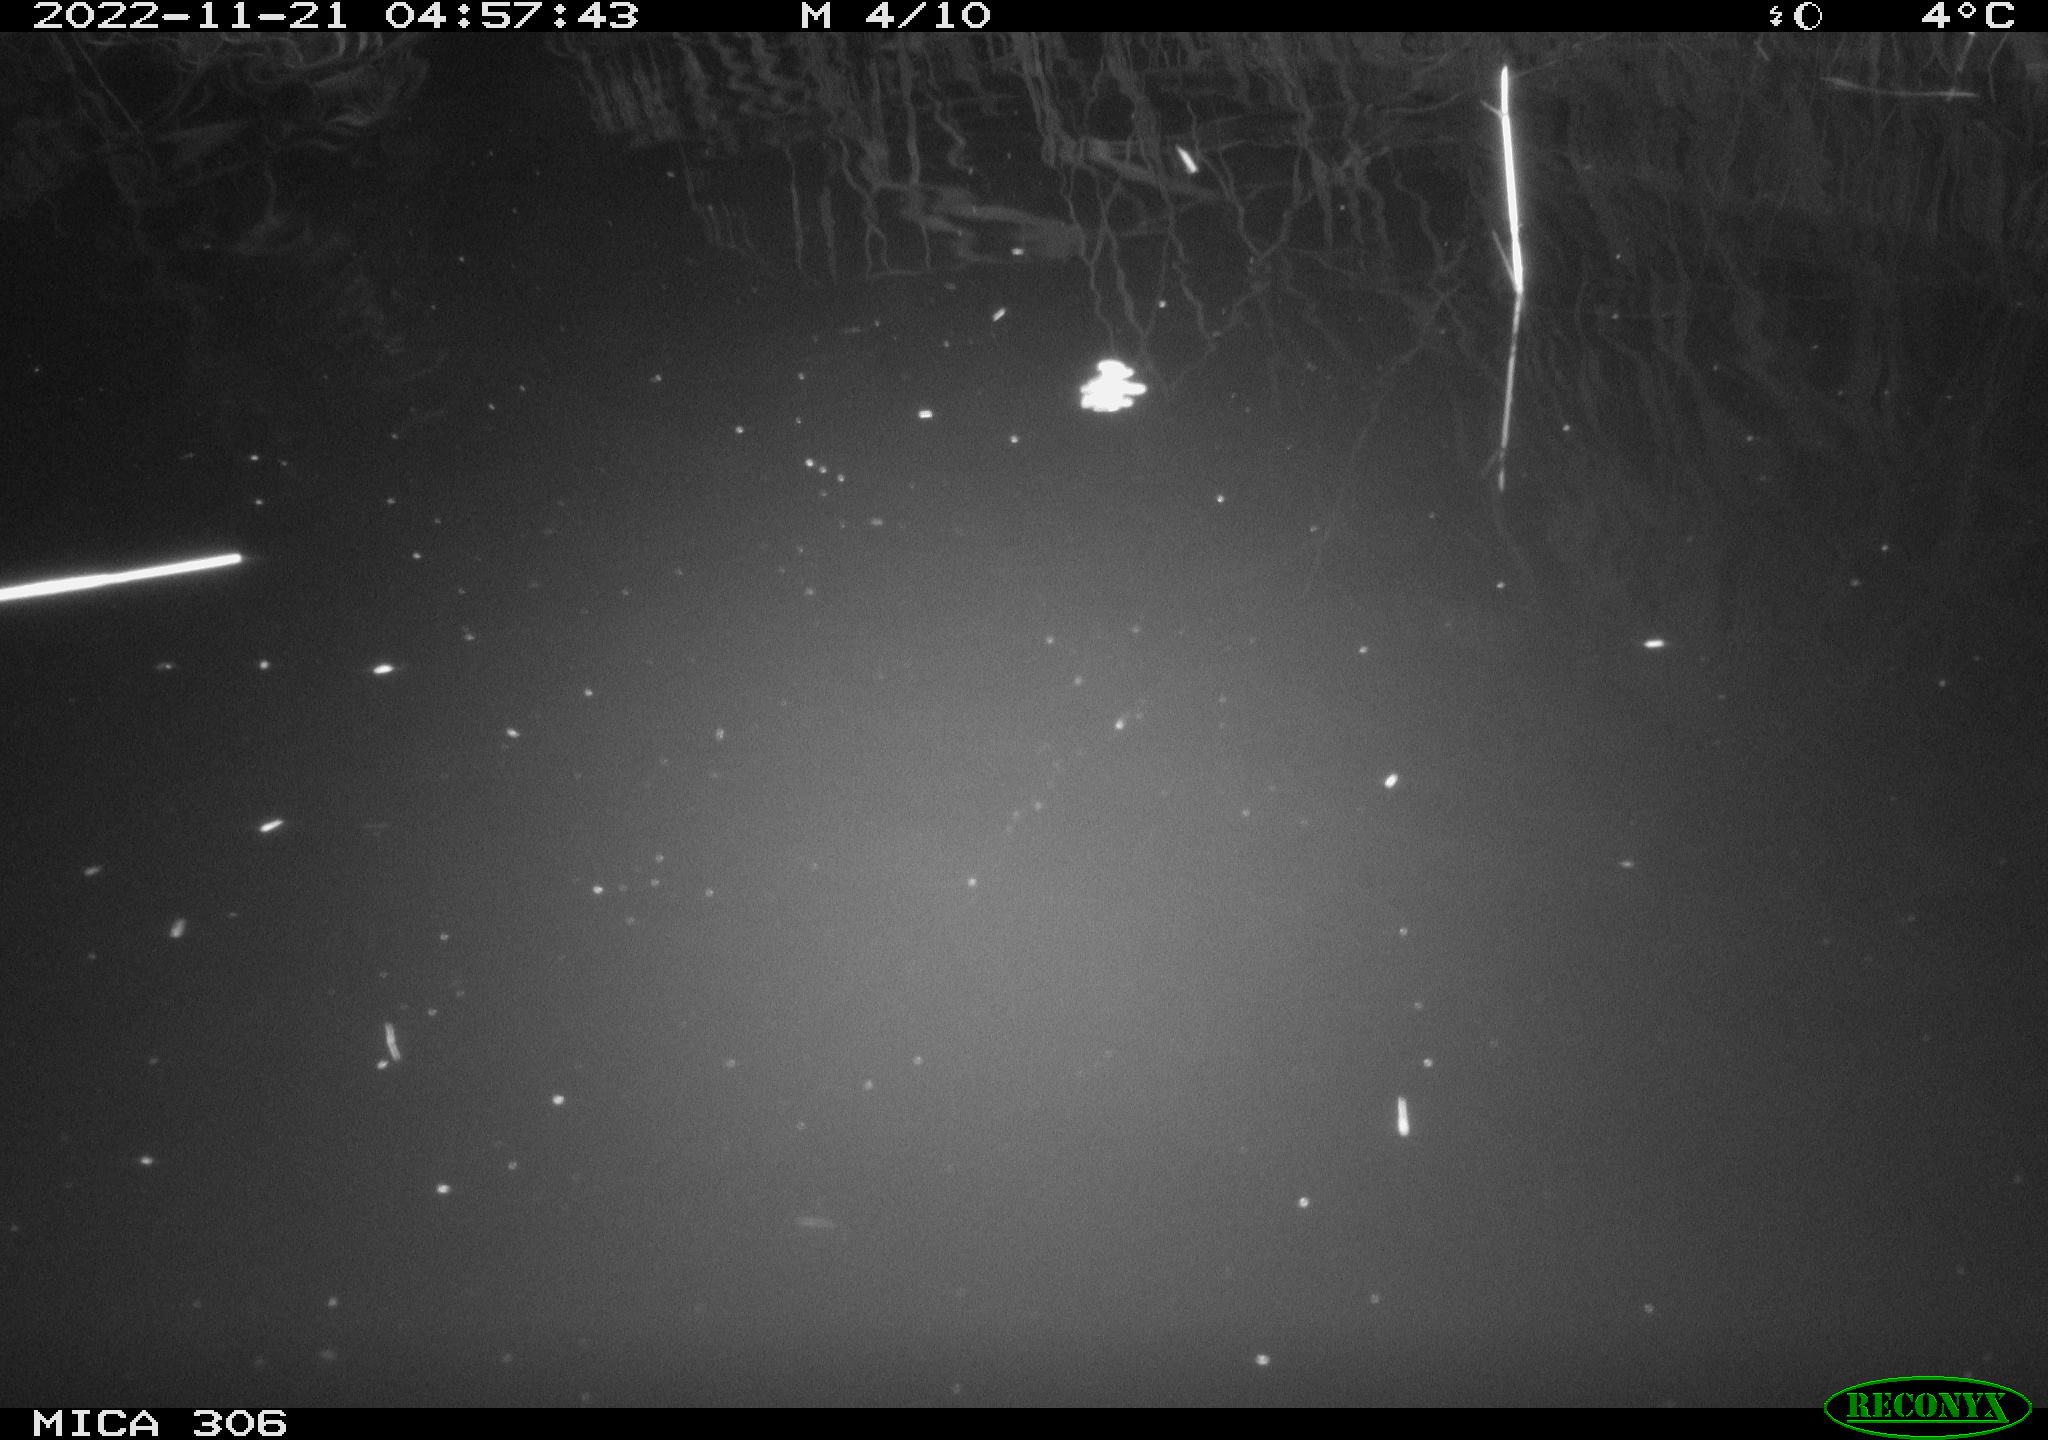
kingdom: Animalia
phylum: Chordata
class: Mammalia
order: Rodentia
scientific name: Rodentia
